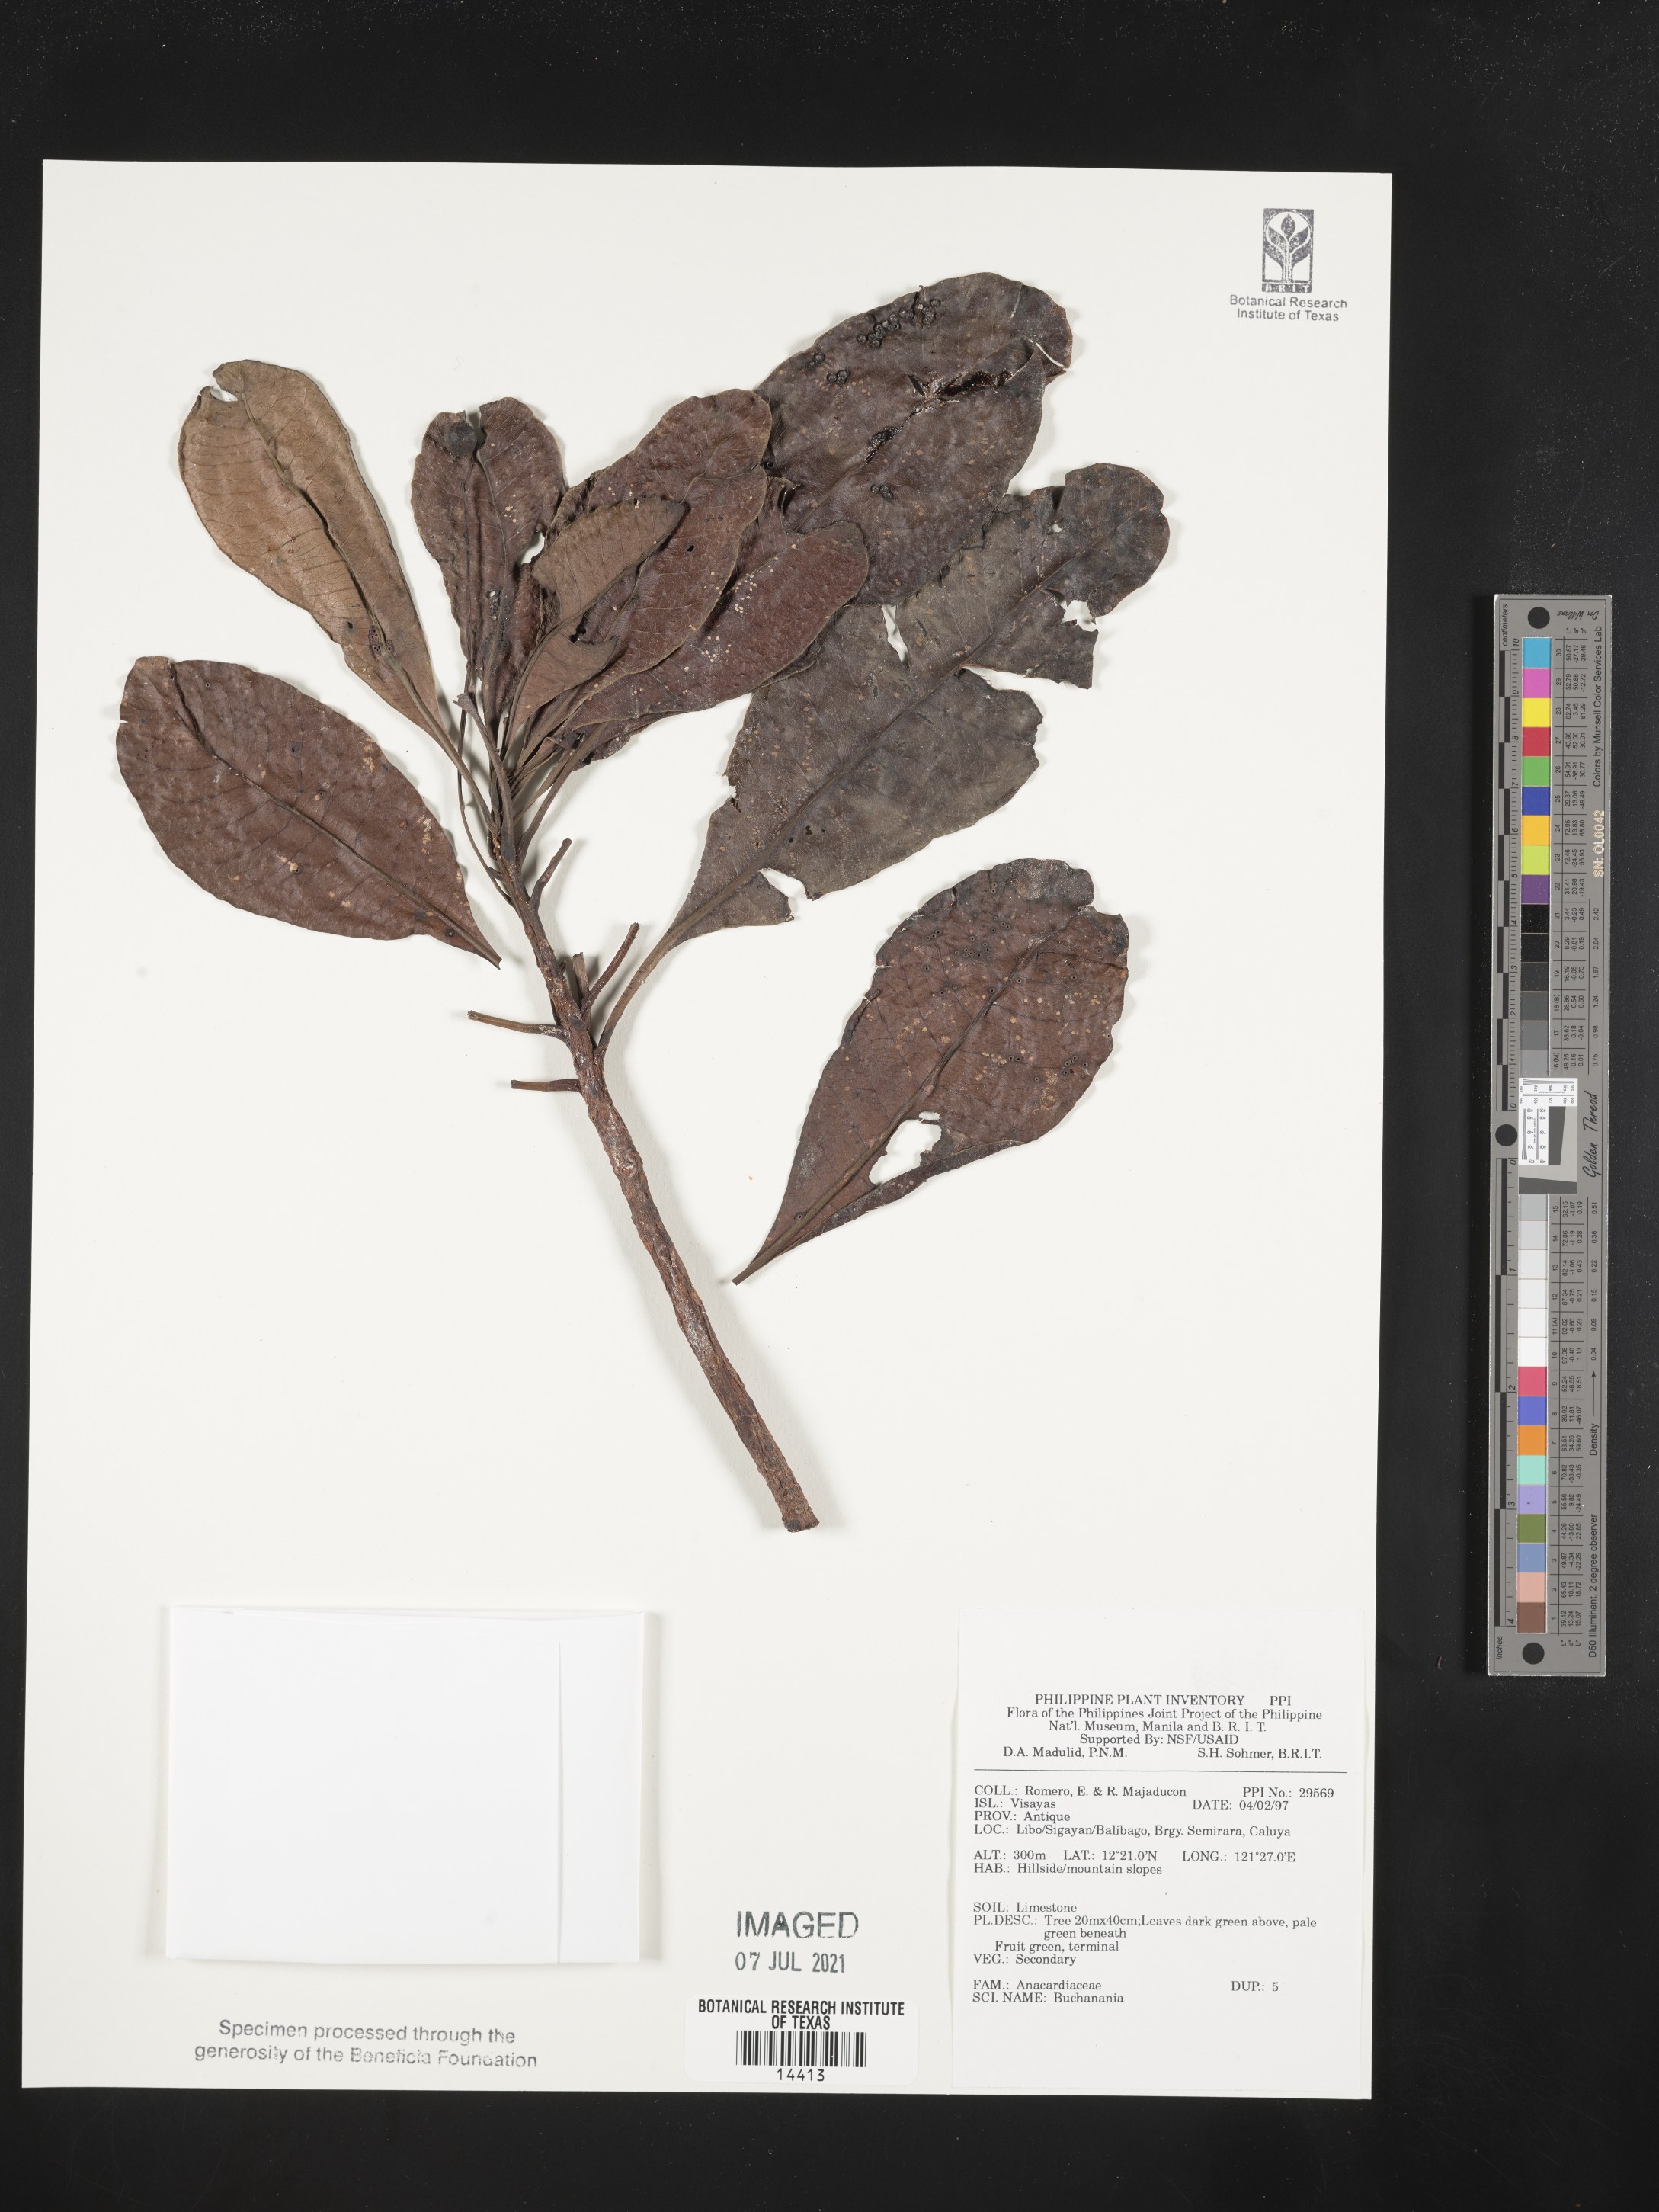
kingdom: Plantae
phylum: Tracheophyta
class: Magnoliopsida
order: Sapindales
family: Anacardiaceae
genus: Buchanania
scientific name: Buchanania
